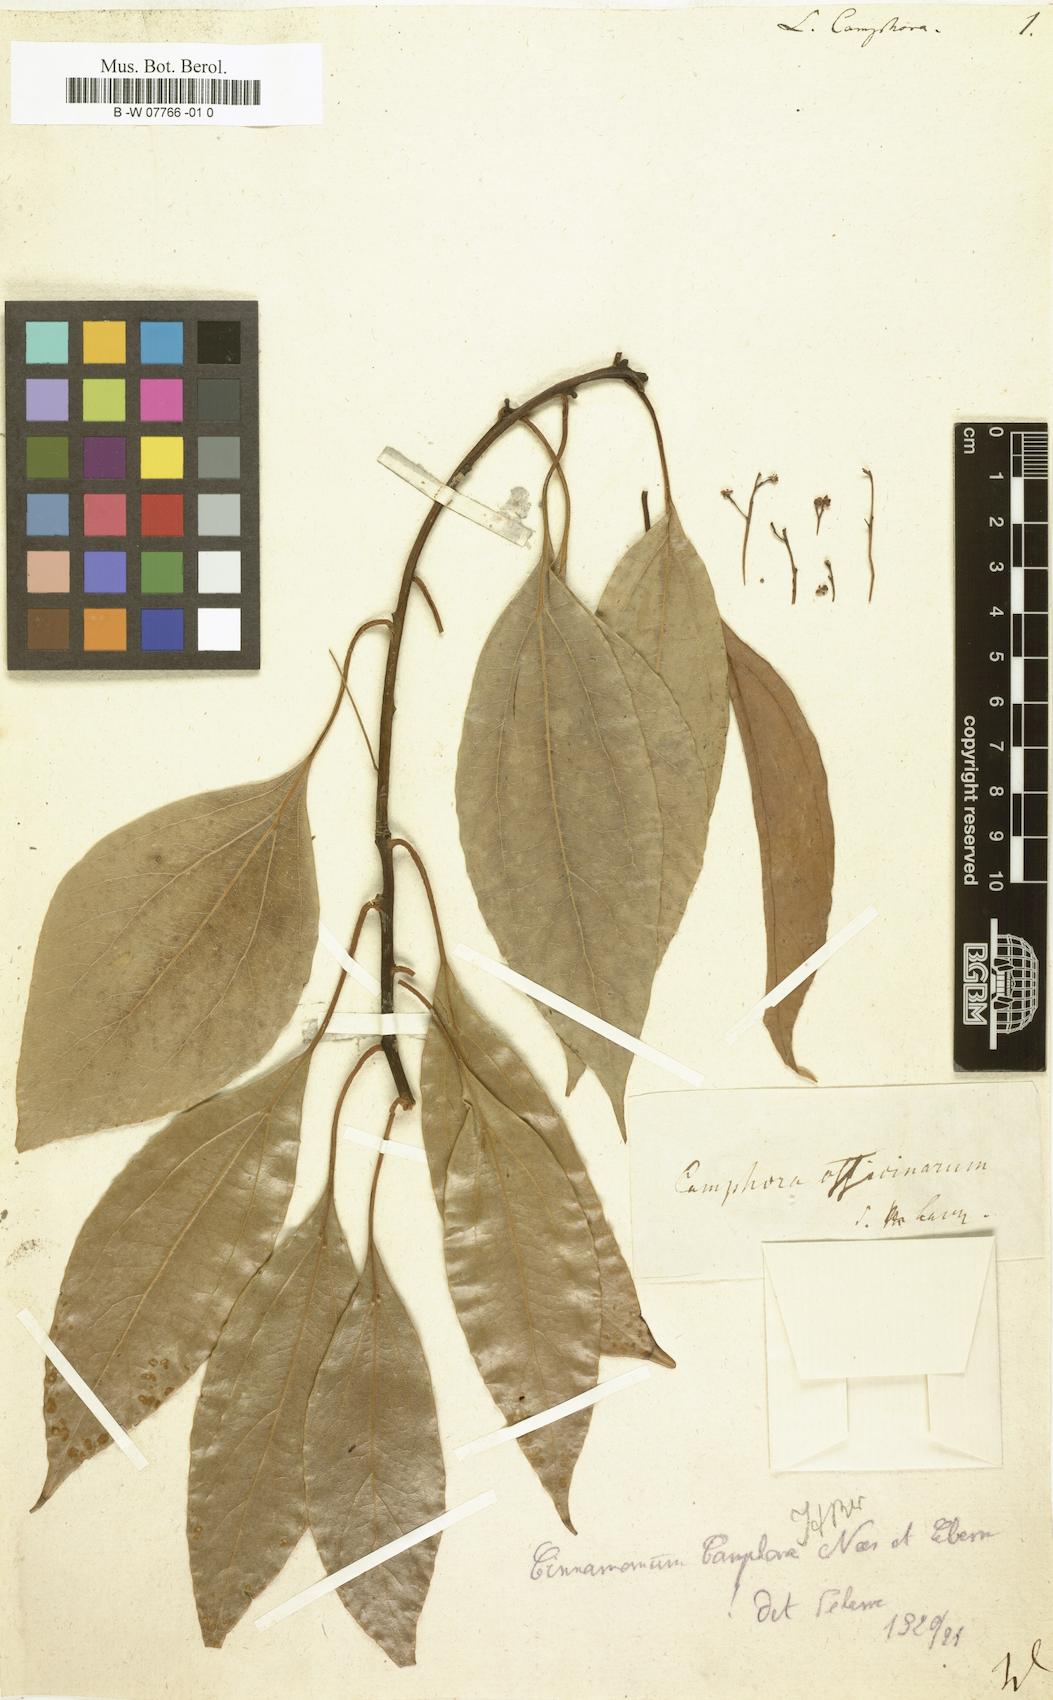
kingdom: Plantae
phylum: Tracheophyta
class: Magnoliopsida
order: Laurales
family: Lauraceae
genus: Cinnamomum
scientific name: Cinnamomum camphora
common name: Camphortree
